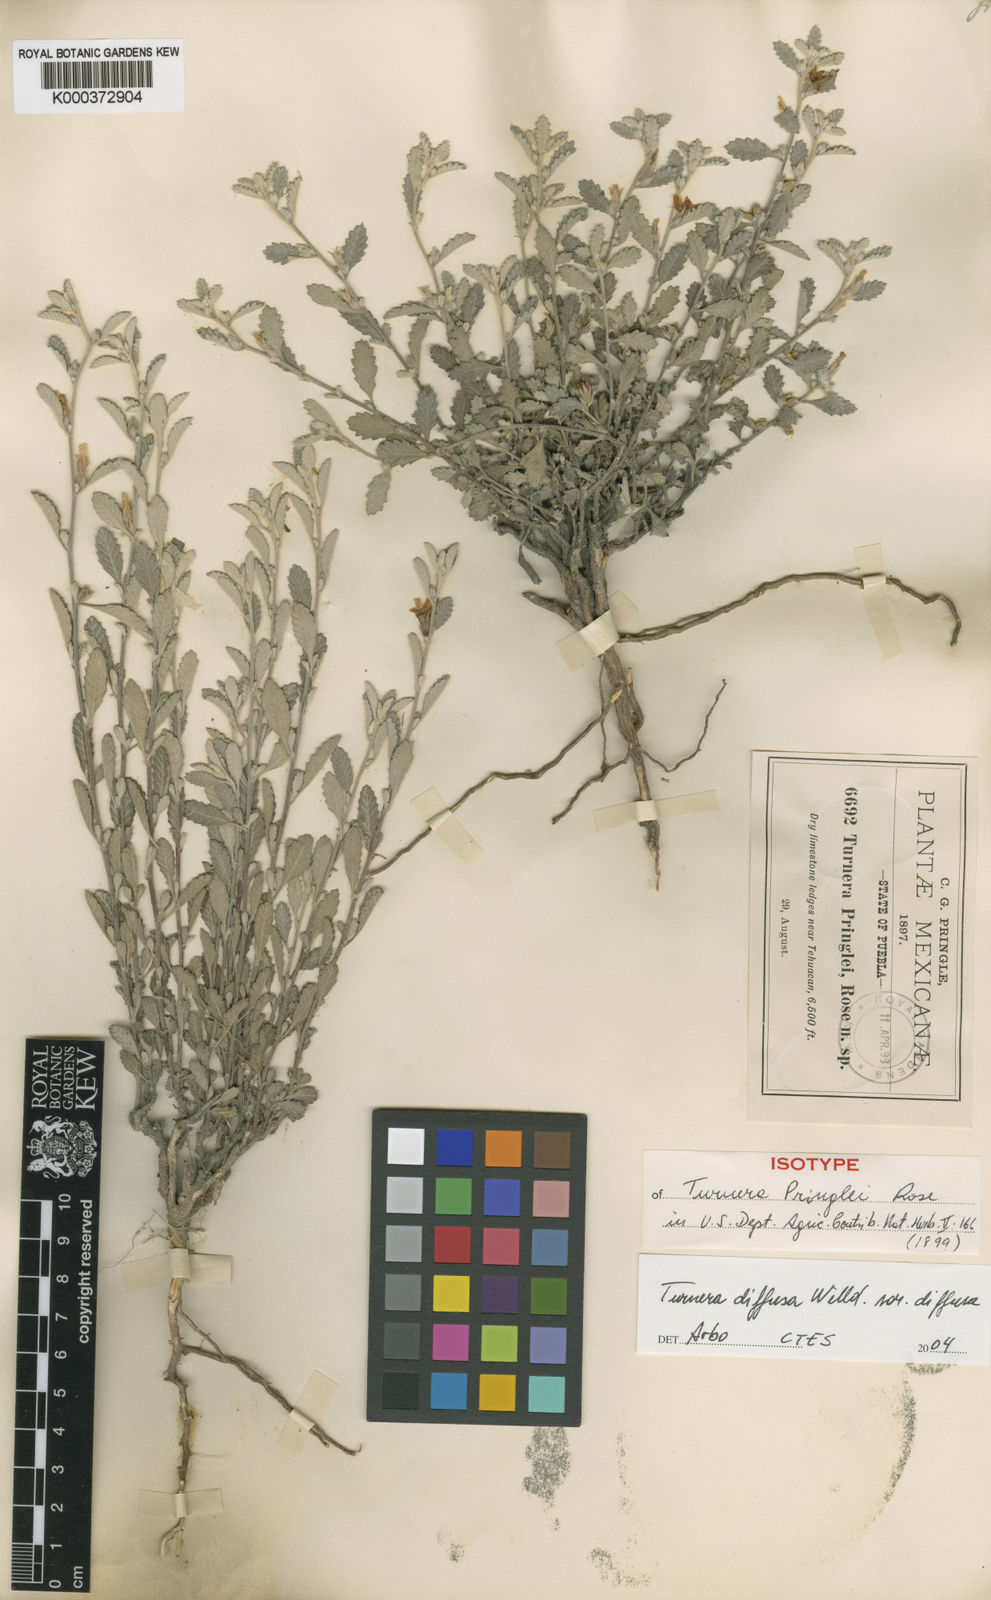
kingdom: Plantae
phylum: Tracheophyta
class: Magnoliopsida
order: Malpighiales
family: Turneraceae
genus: Turnera
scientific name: Turnera diffusa
